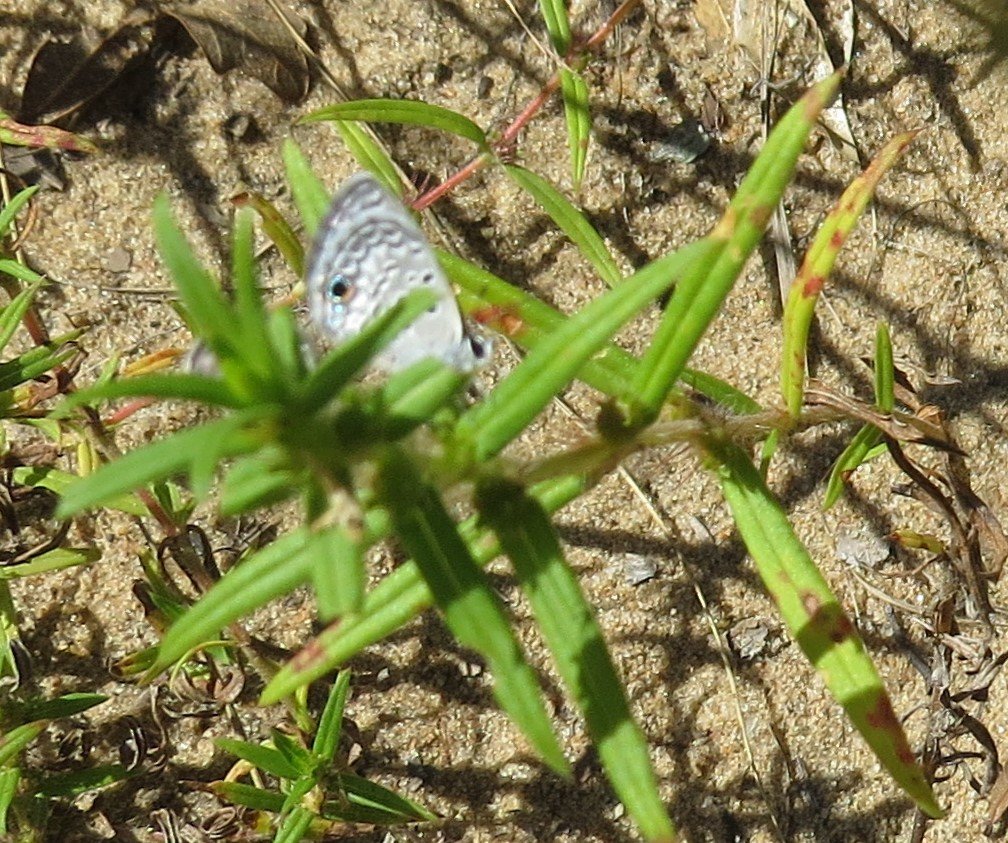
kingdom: Animalia
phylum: Arthropoda
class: Insecta
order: Lepidoptera
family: Lycaenidae
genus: Hemiargus
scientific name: Hemiargus ceraunus
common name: Ceraunus Blue
